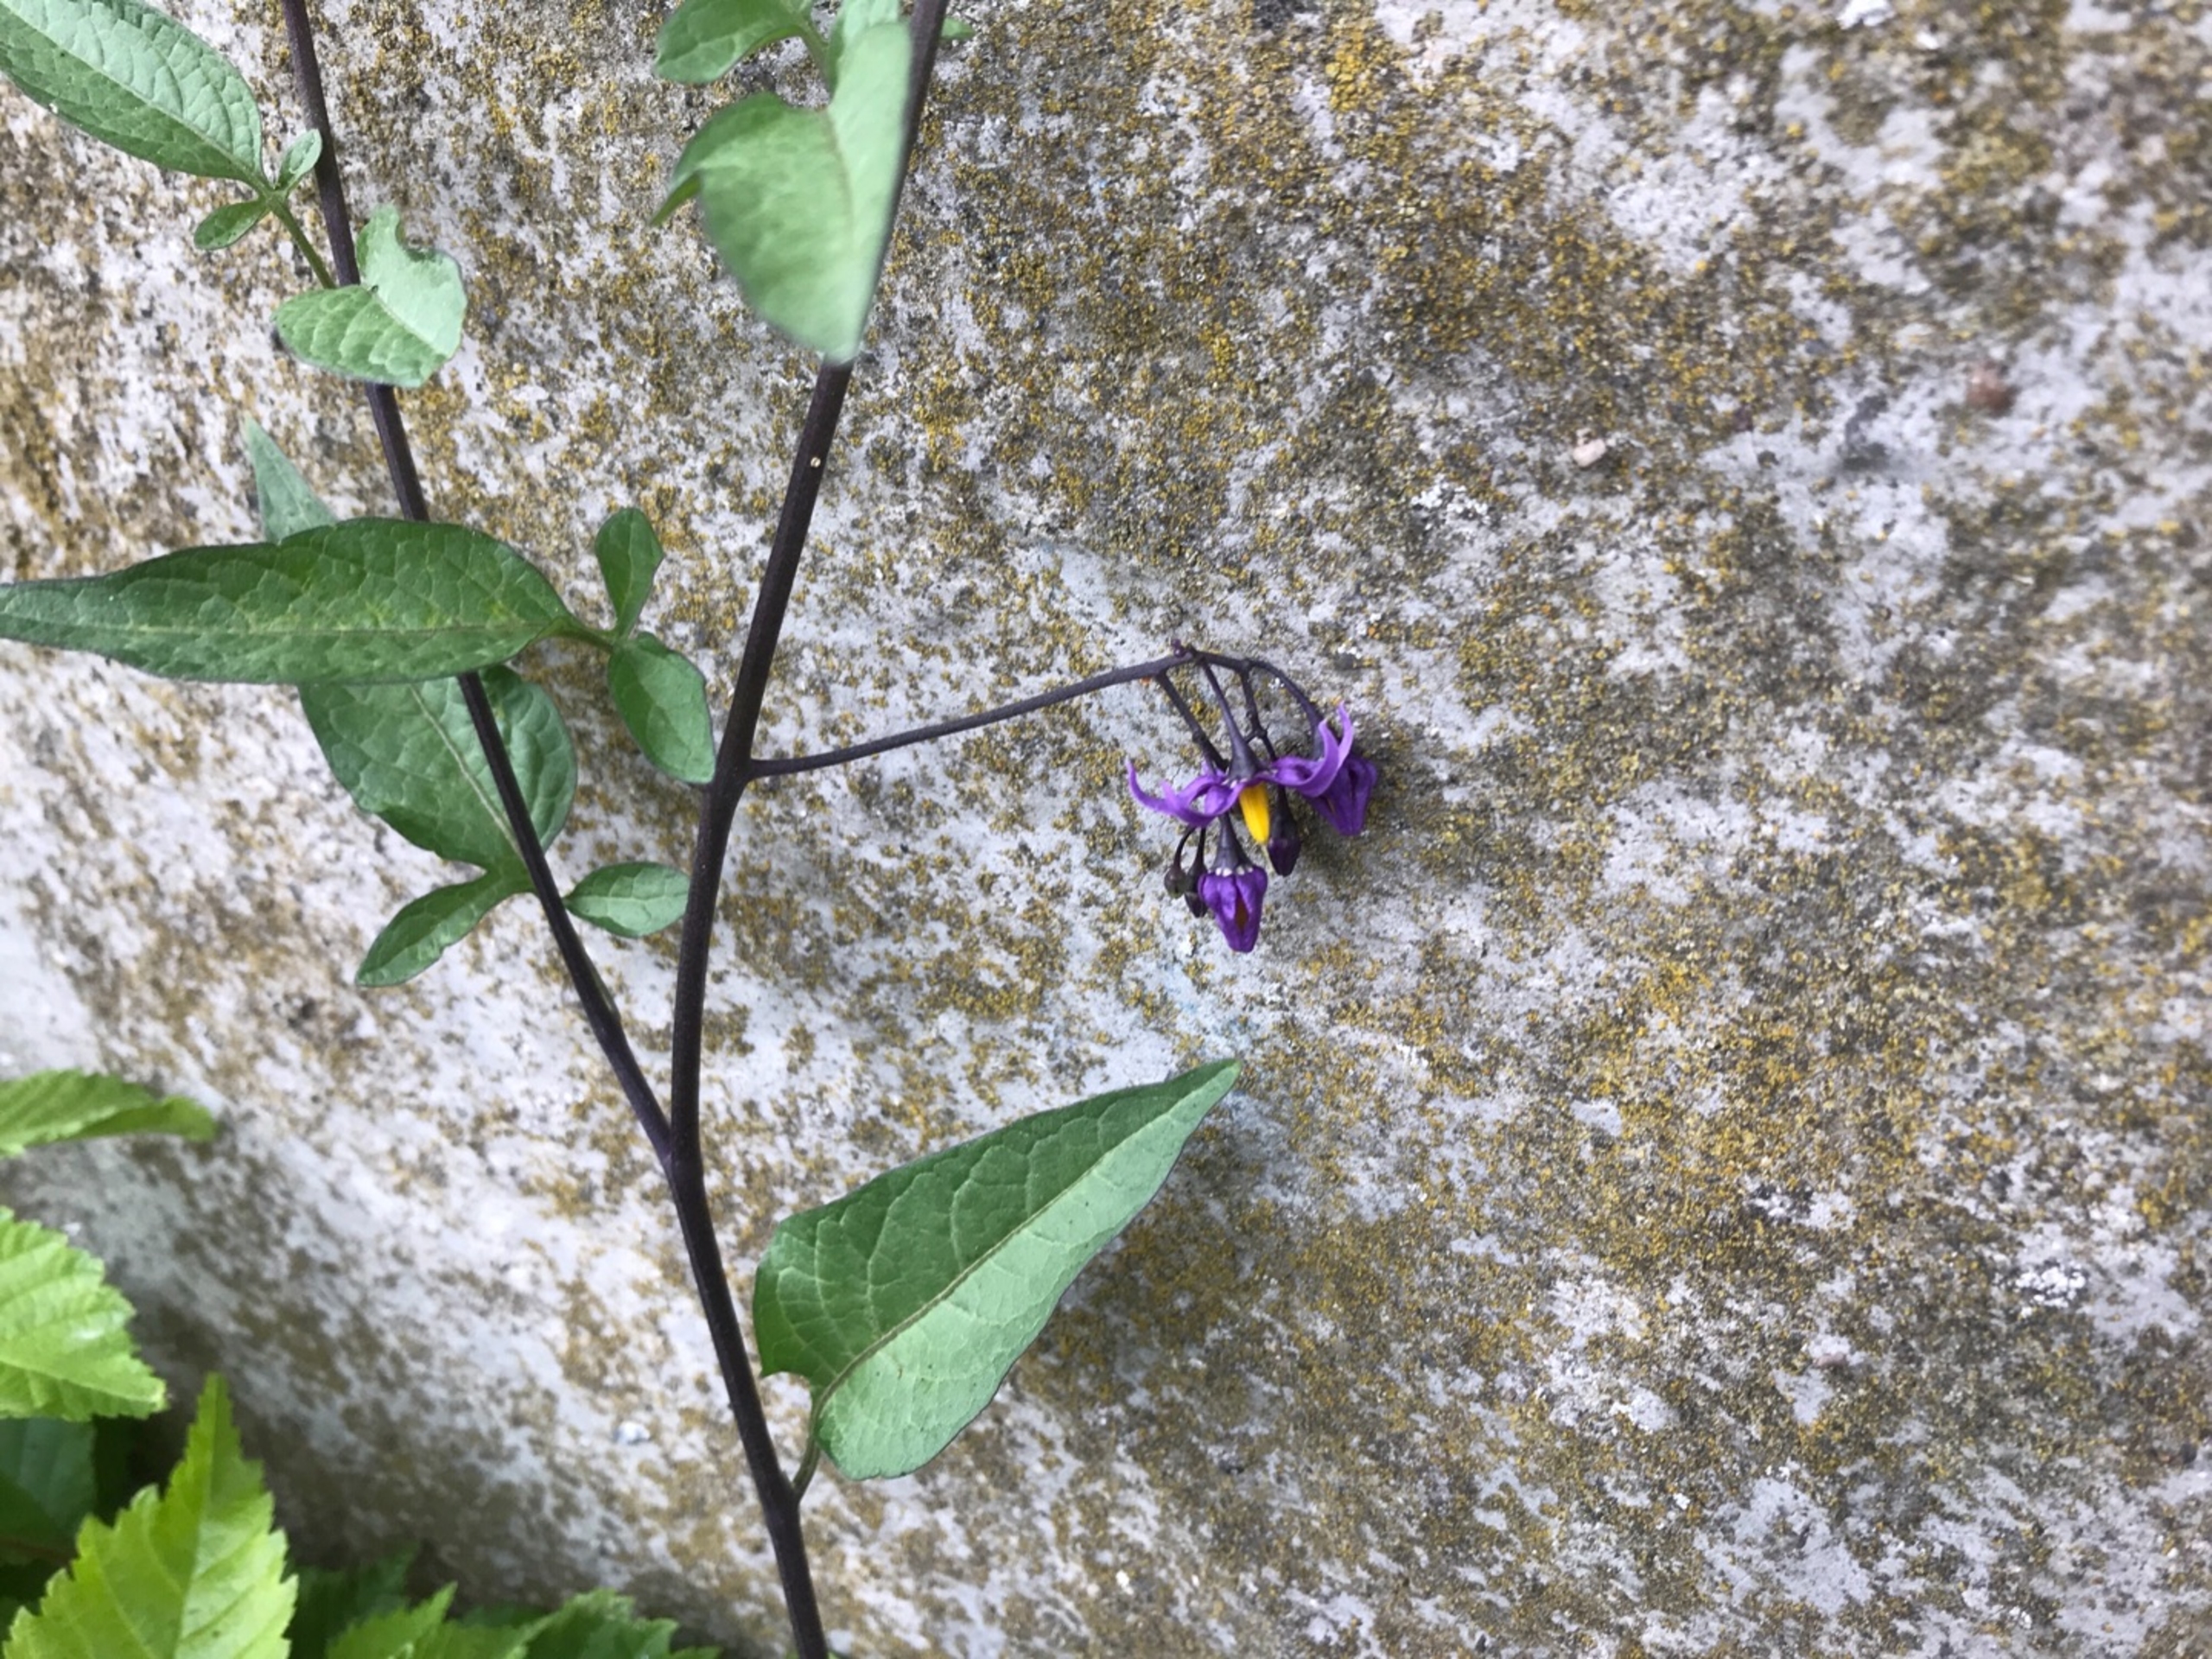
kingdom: Plantae
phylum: Tracheophyta
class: Magnoliopsida
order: Solanales
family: Solanaceae
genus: Solanum
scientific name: Solanum dulcamara
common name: Bittersød natskygge
